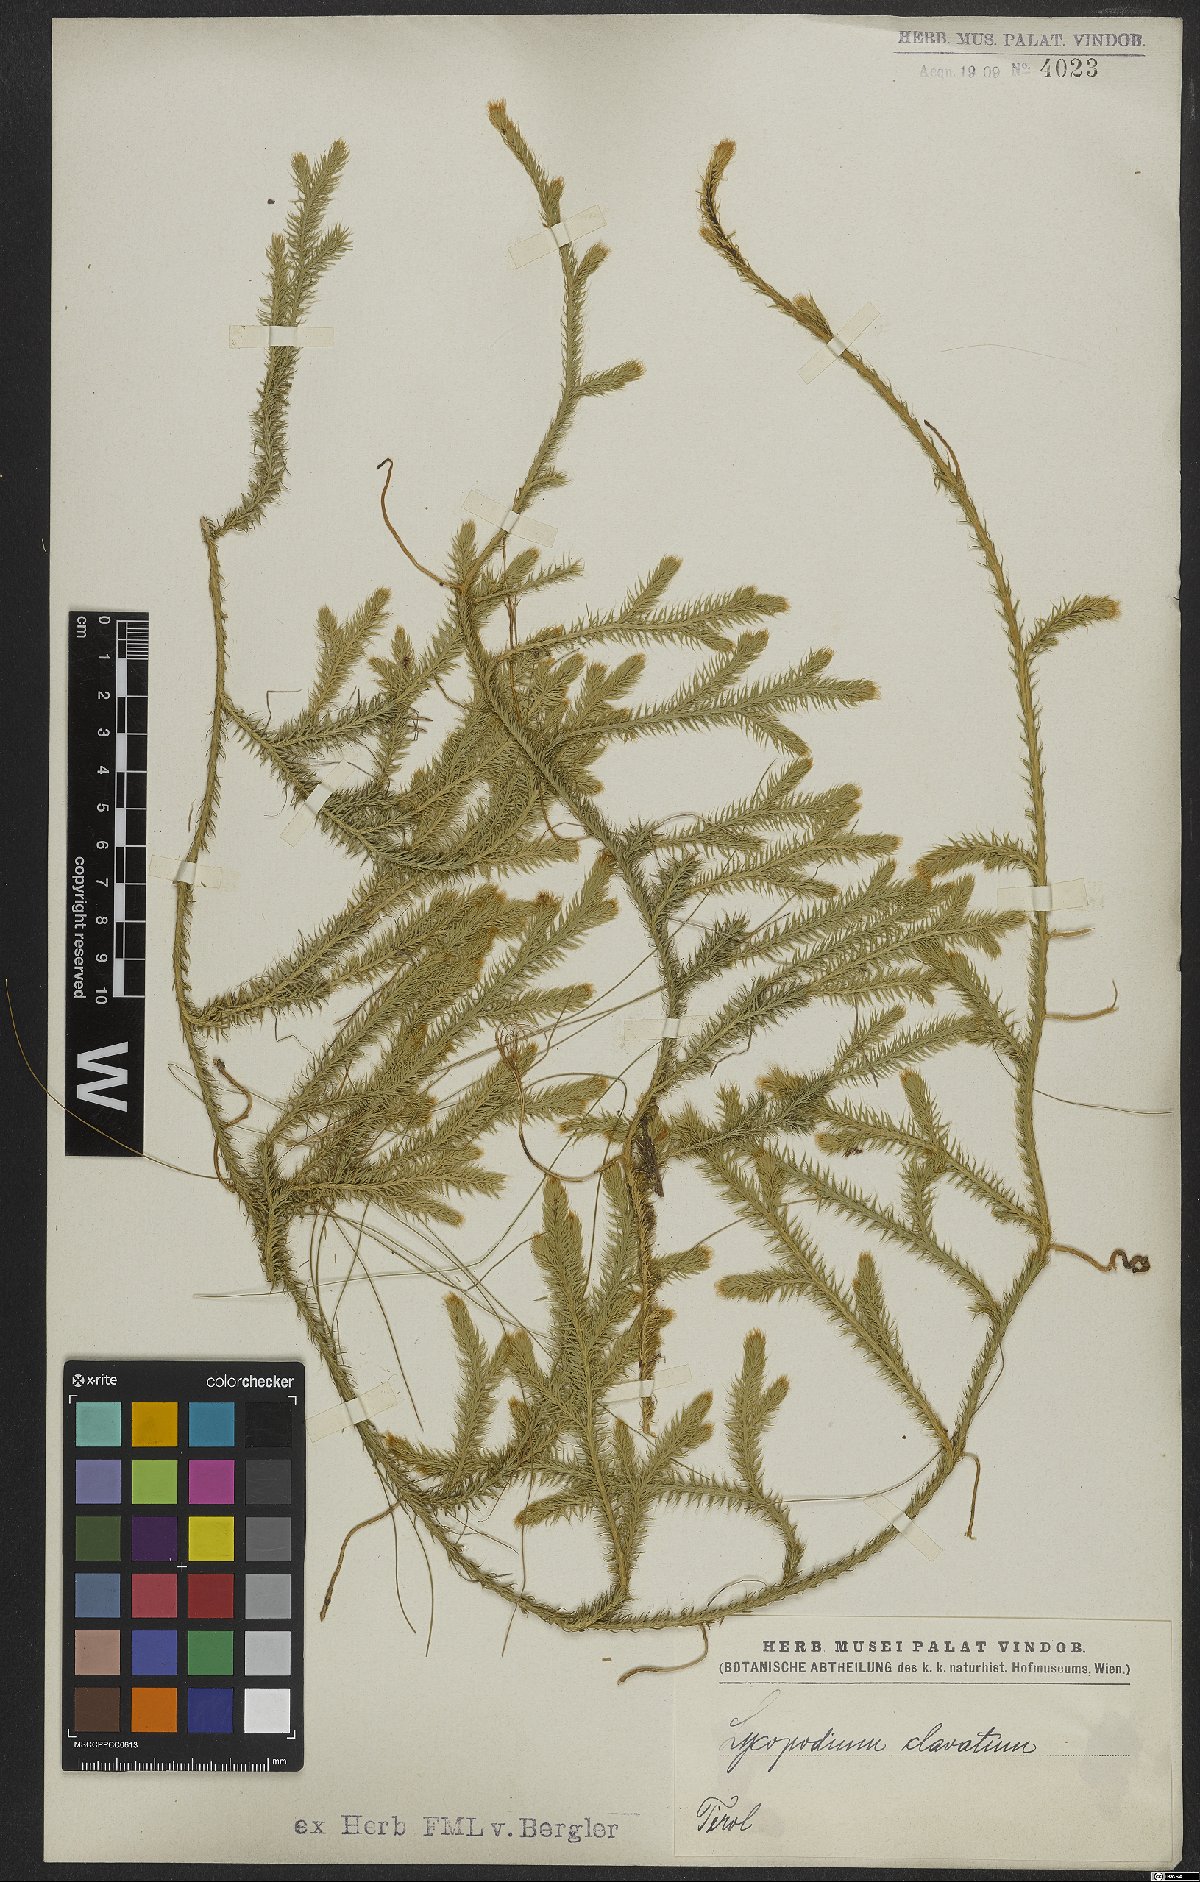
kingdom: Plantae
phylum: Tracheophyta
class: Lycopodiopsida
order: Lycopodiales
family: Lycopodiaceae
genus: Lycopodium
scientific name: Lycopodium clavatum
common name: Stag's-horn clubmoss
